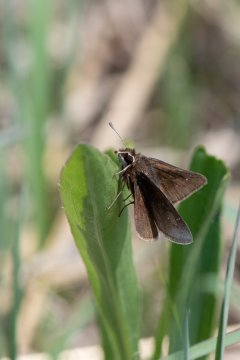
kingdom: Animalia
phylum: Arthropoda
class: Insecta
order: Lepidoptera
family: Hesperiidae
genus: Atrytonopsis
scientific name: Atrytonopsis hianna
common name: Dusted Skipper
